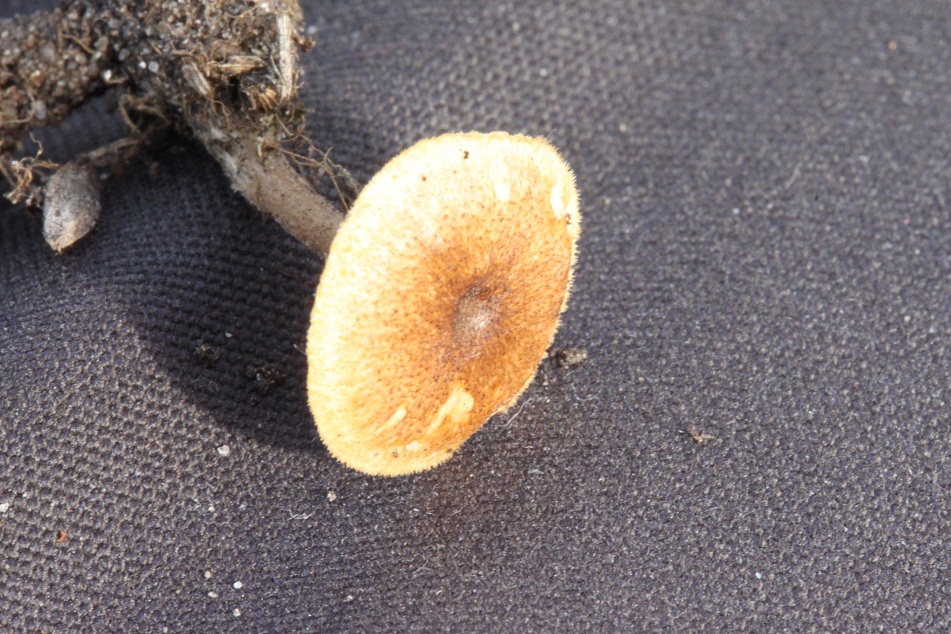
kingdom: Fungi
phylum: Basidiomycota
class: Agaricomycetes
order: Polyporales
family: Polyporaceae
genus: Lentinus
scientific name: Lentinus brumalis
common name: vinter-stilkporesvamp
